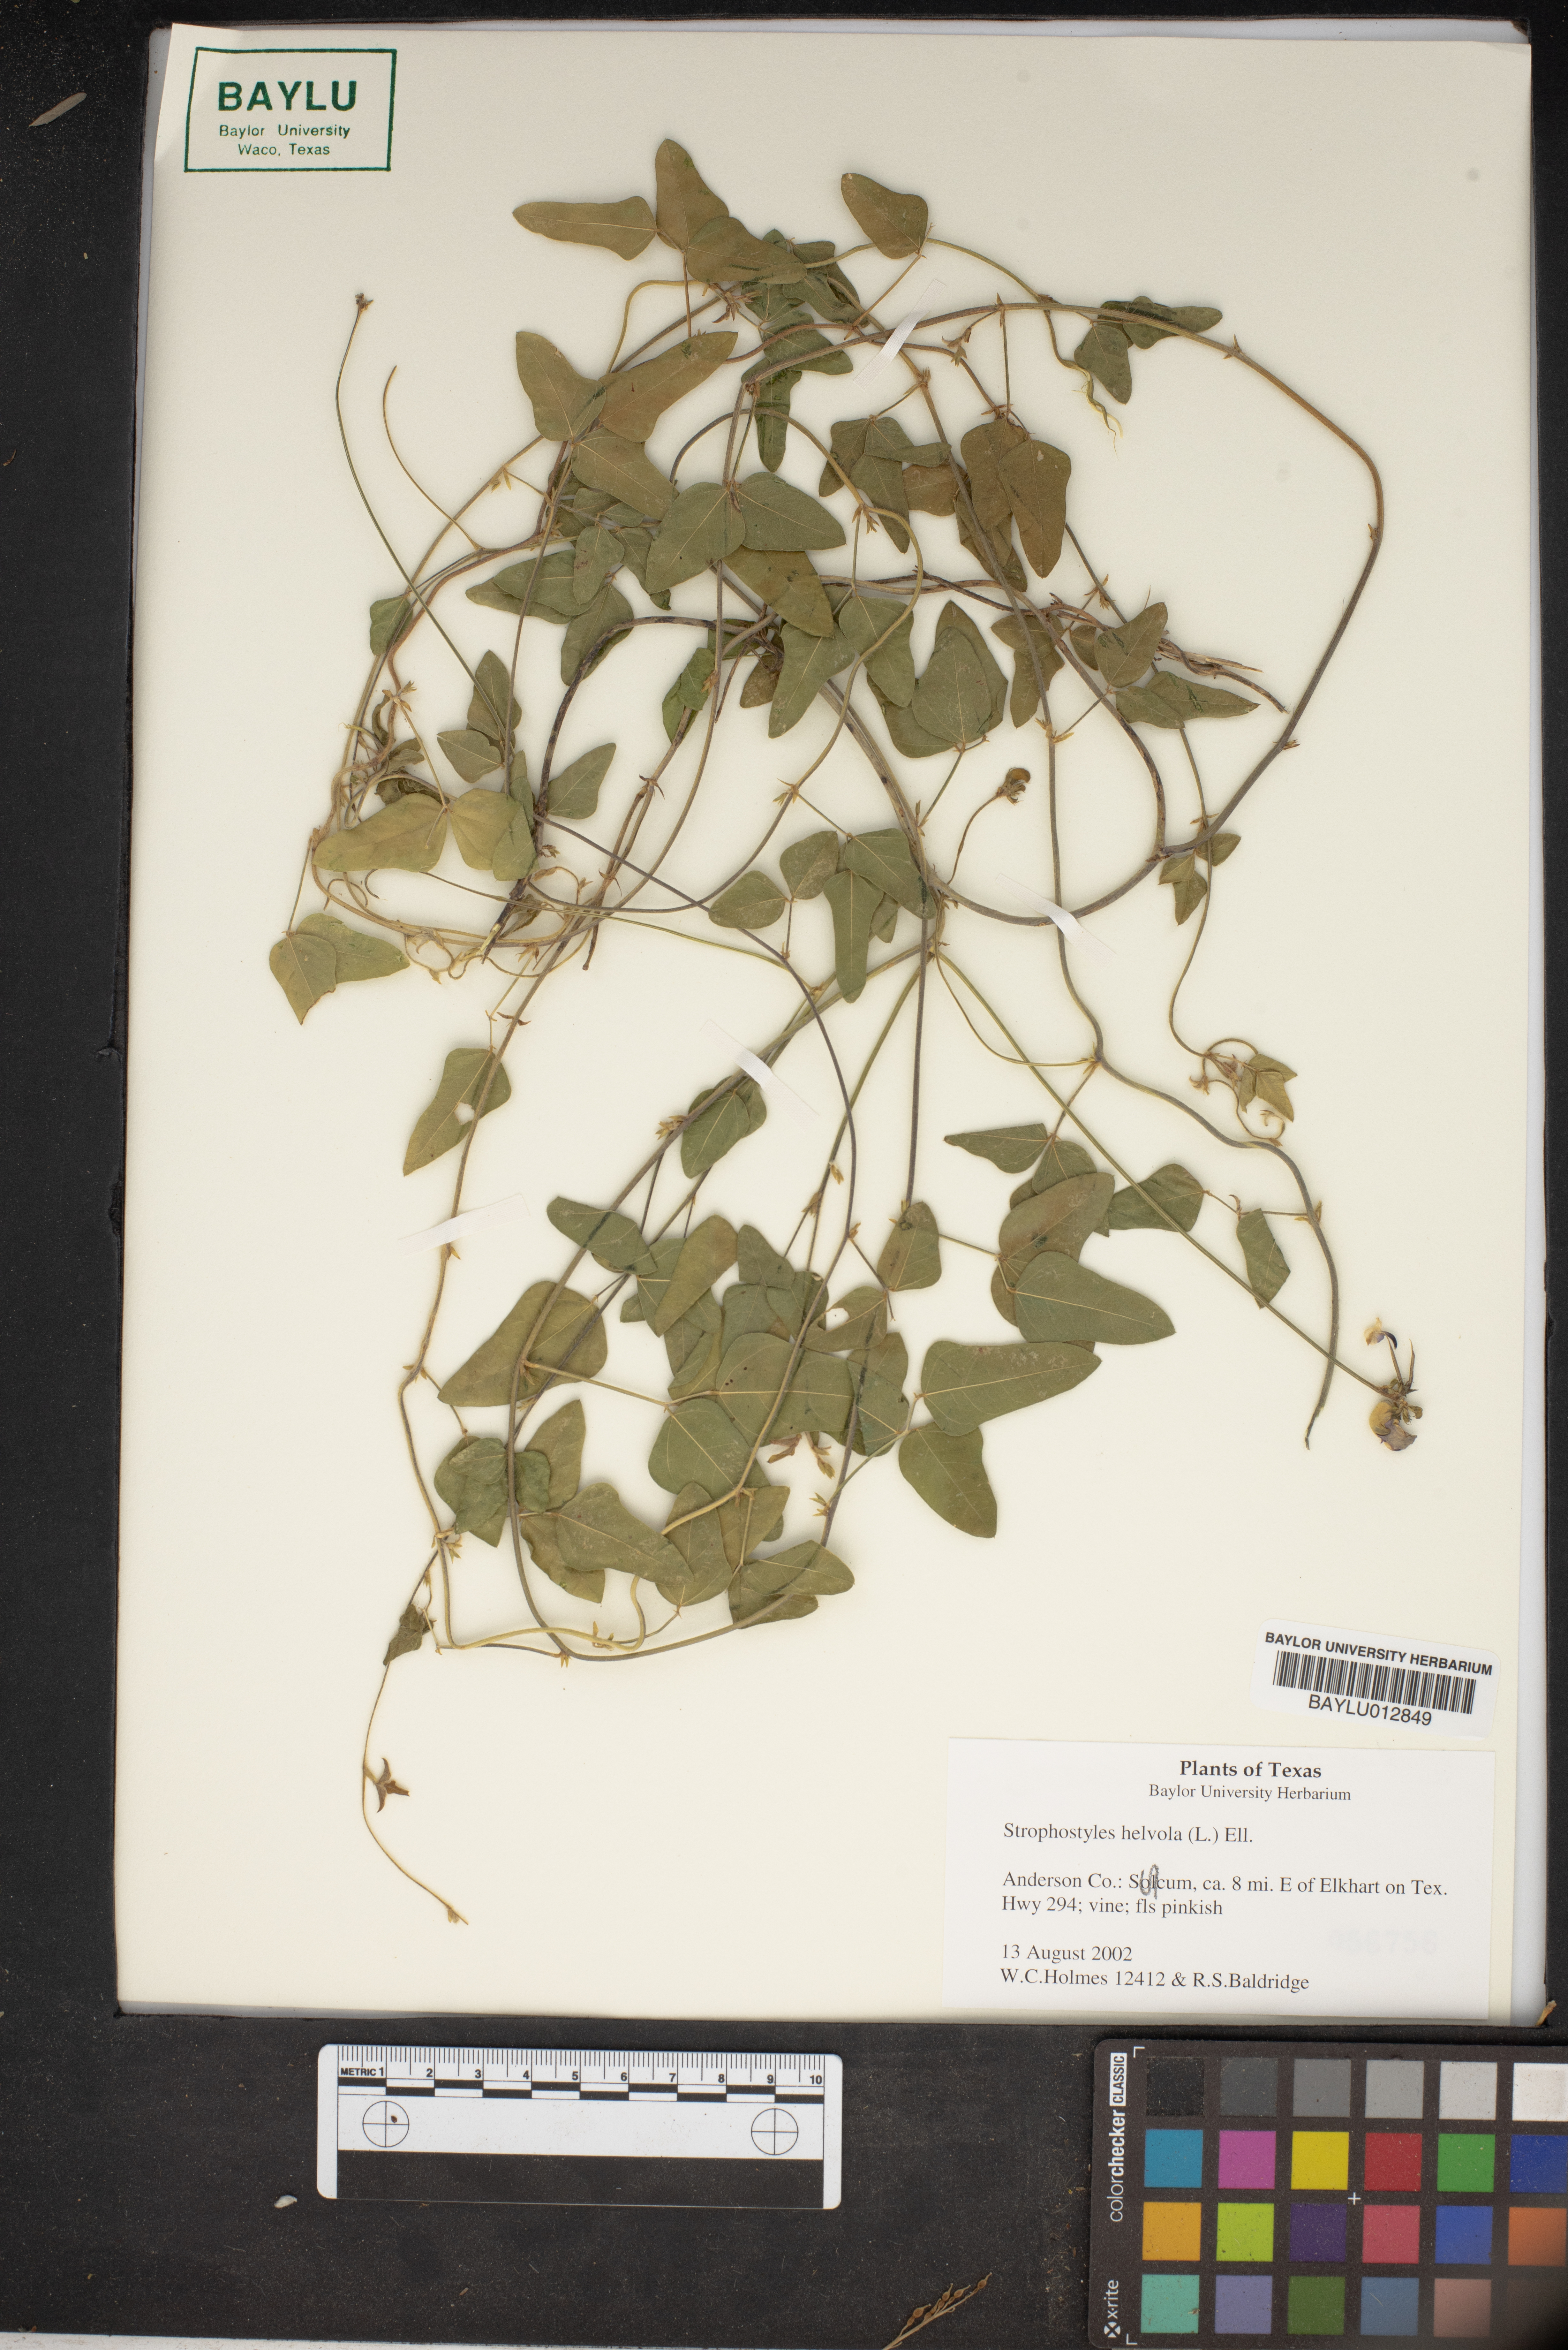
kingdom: Plantae
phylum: Tracheophyta
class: Magnoliopsida
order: Fabales
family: Fabaceae
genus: Strophostyles
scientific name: Strophostyles helvola
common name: Trailing wild bean
